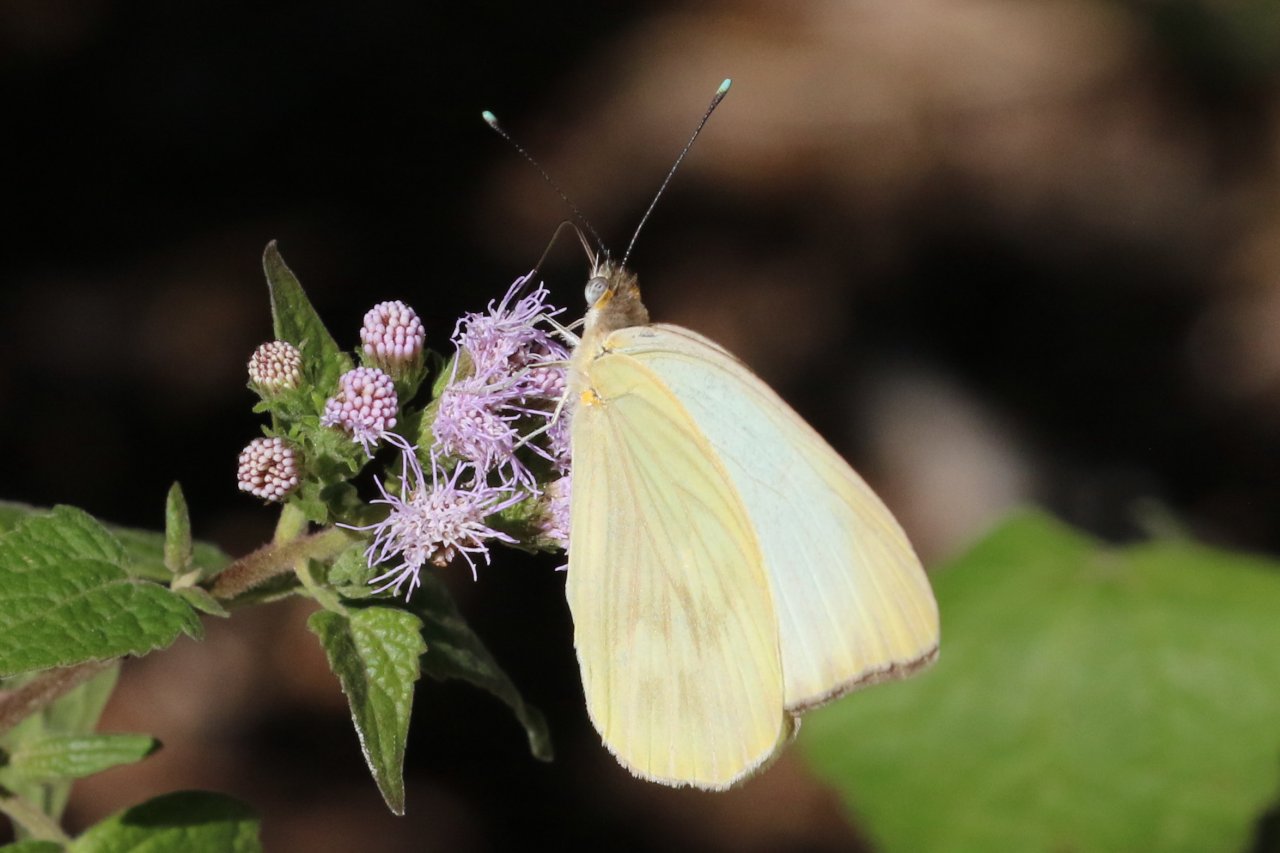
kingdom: Animalia
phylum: Arthropoda
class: Insecta
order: Lepidoptera
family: Pieridae
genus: Ascia
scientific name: Ascia monuste
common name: Great Southern White
